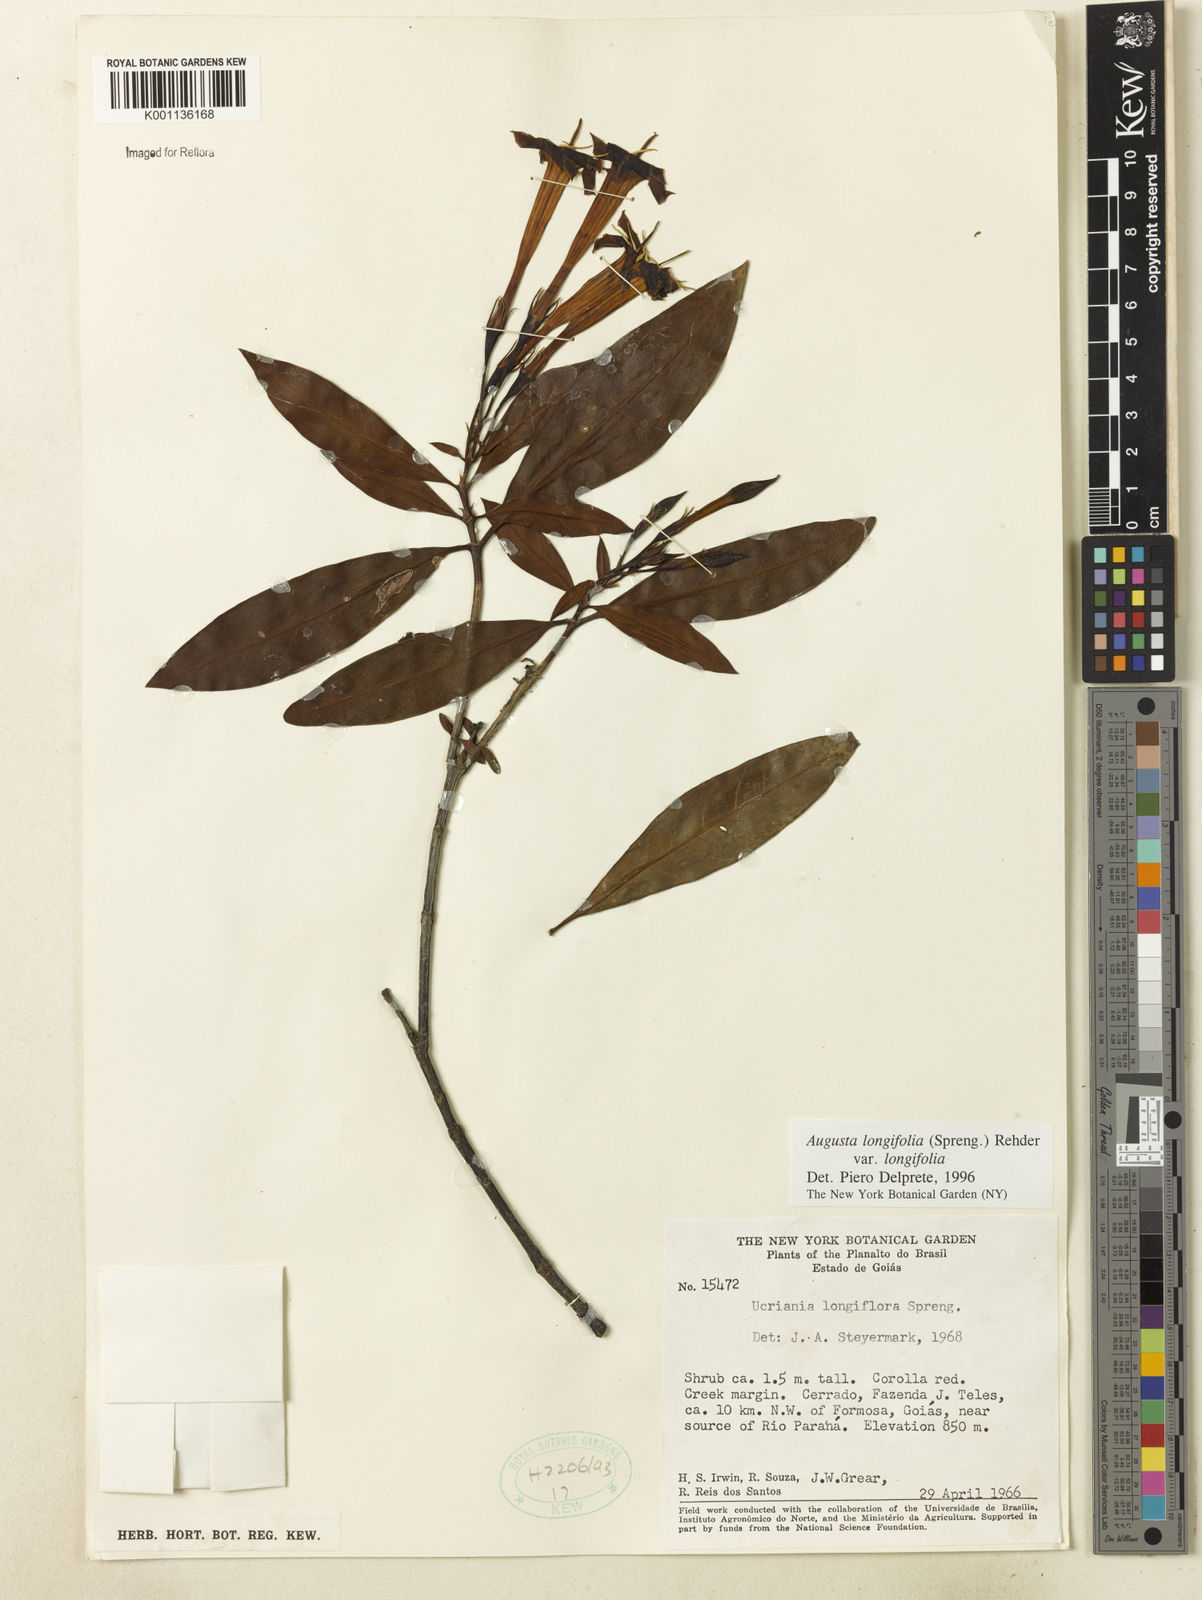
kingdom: Plantae
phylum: Tracheophyta
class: Magnoliopsida
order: Gentianales
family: Rubiaceae
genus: Augusta
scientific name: Augusta longifolia
